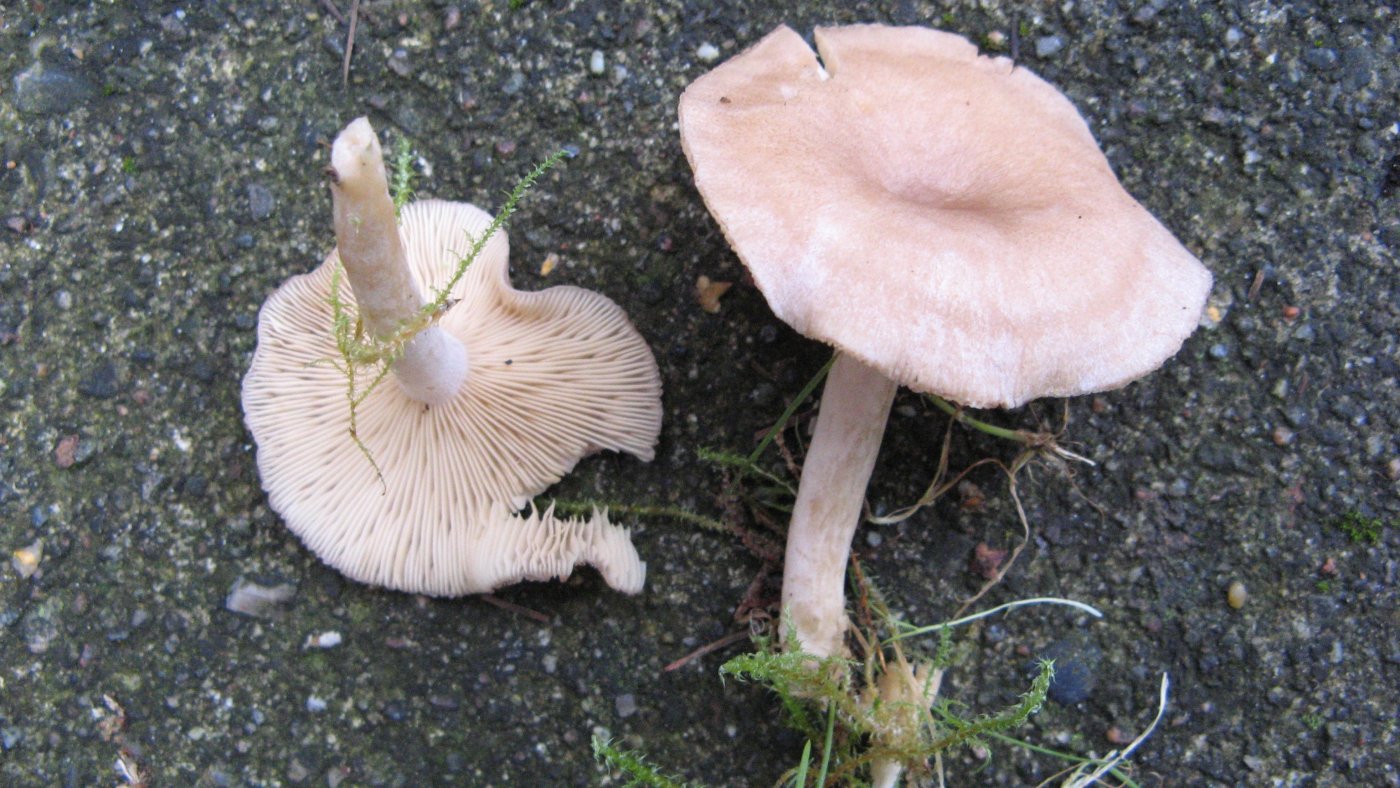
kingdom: Fungi
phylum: Basidiomycota
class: Agaricomycetes
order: Russulales
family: Russulaceae
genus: Lactarius
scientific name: Lactarius glyciosmus
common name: kokos-mælkehat
